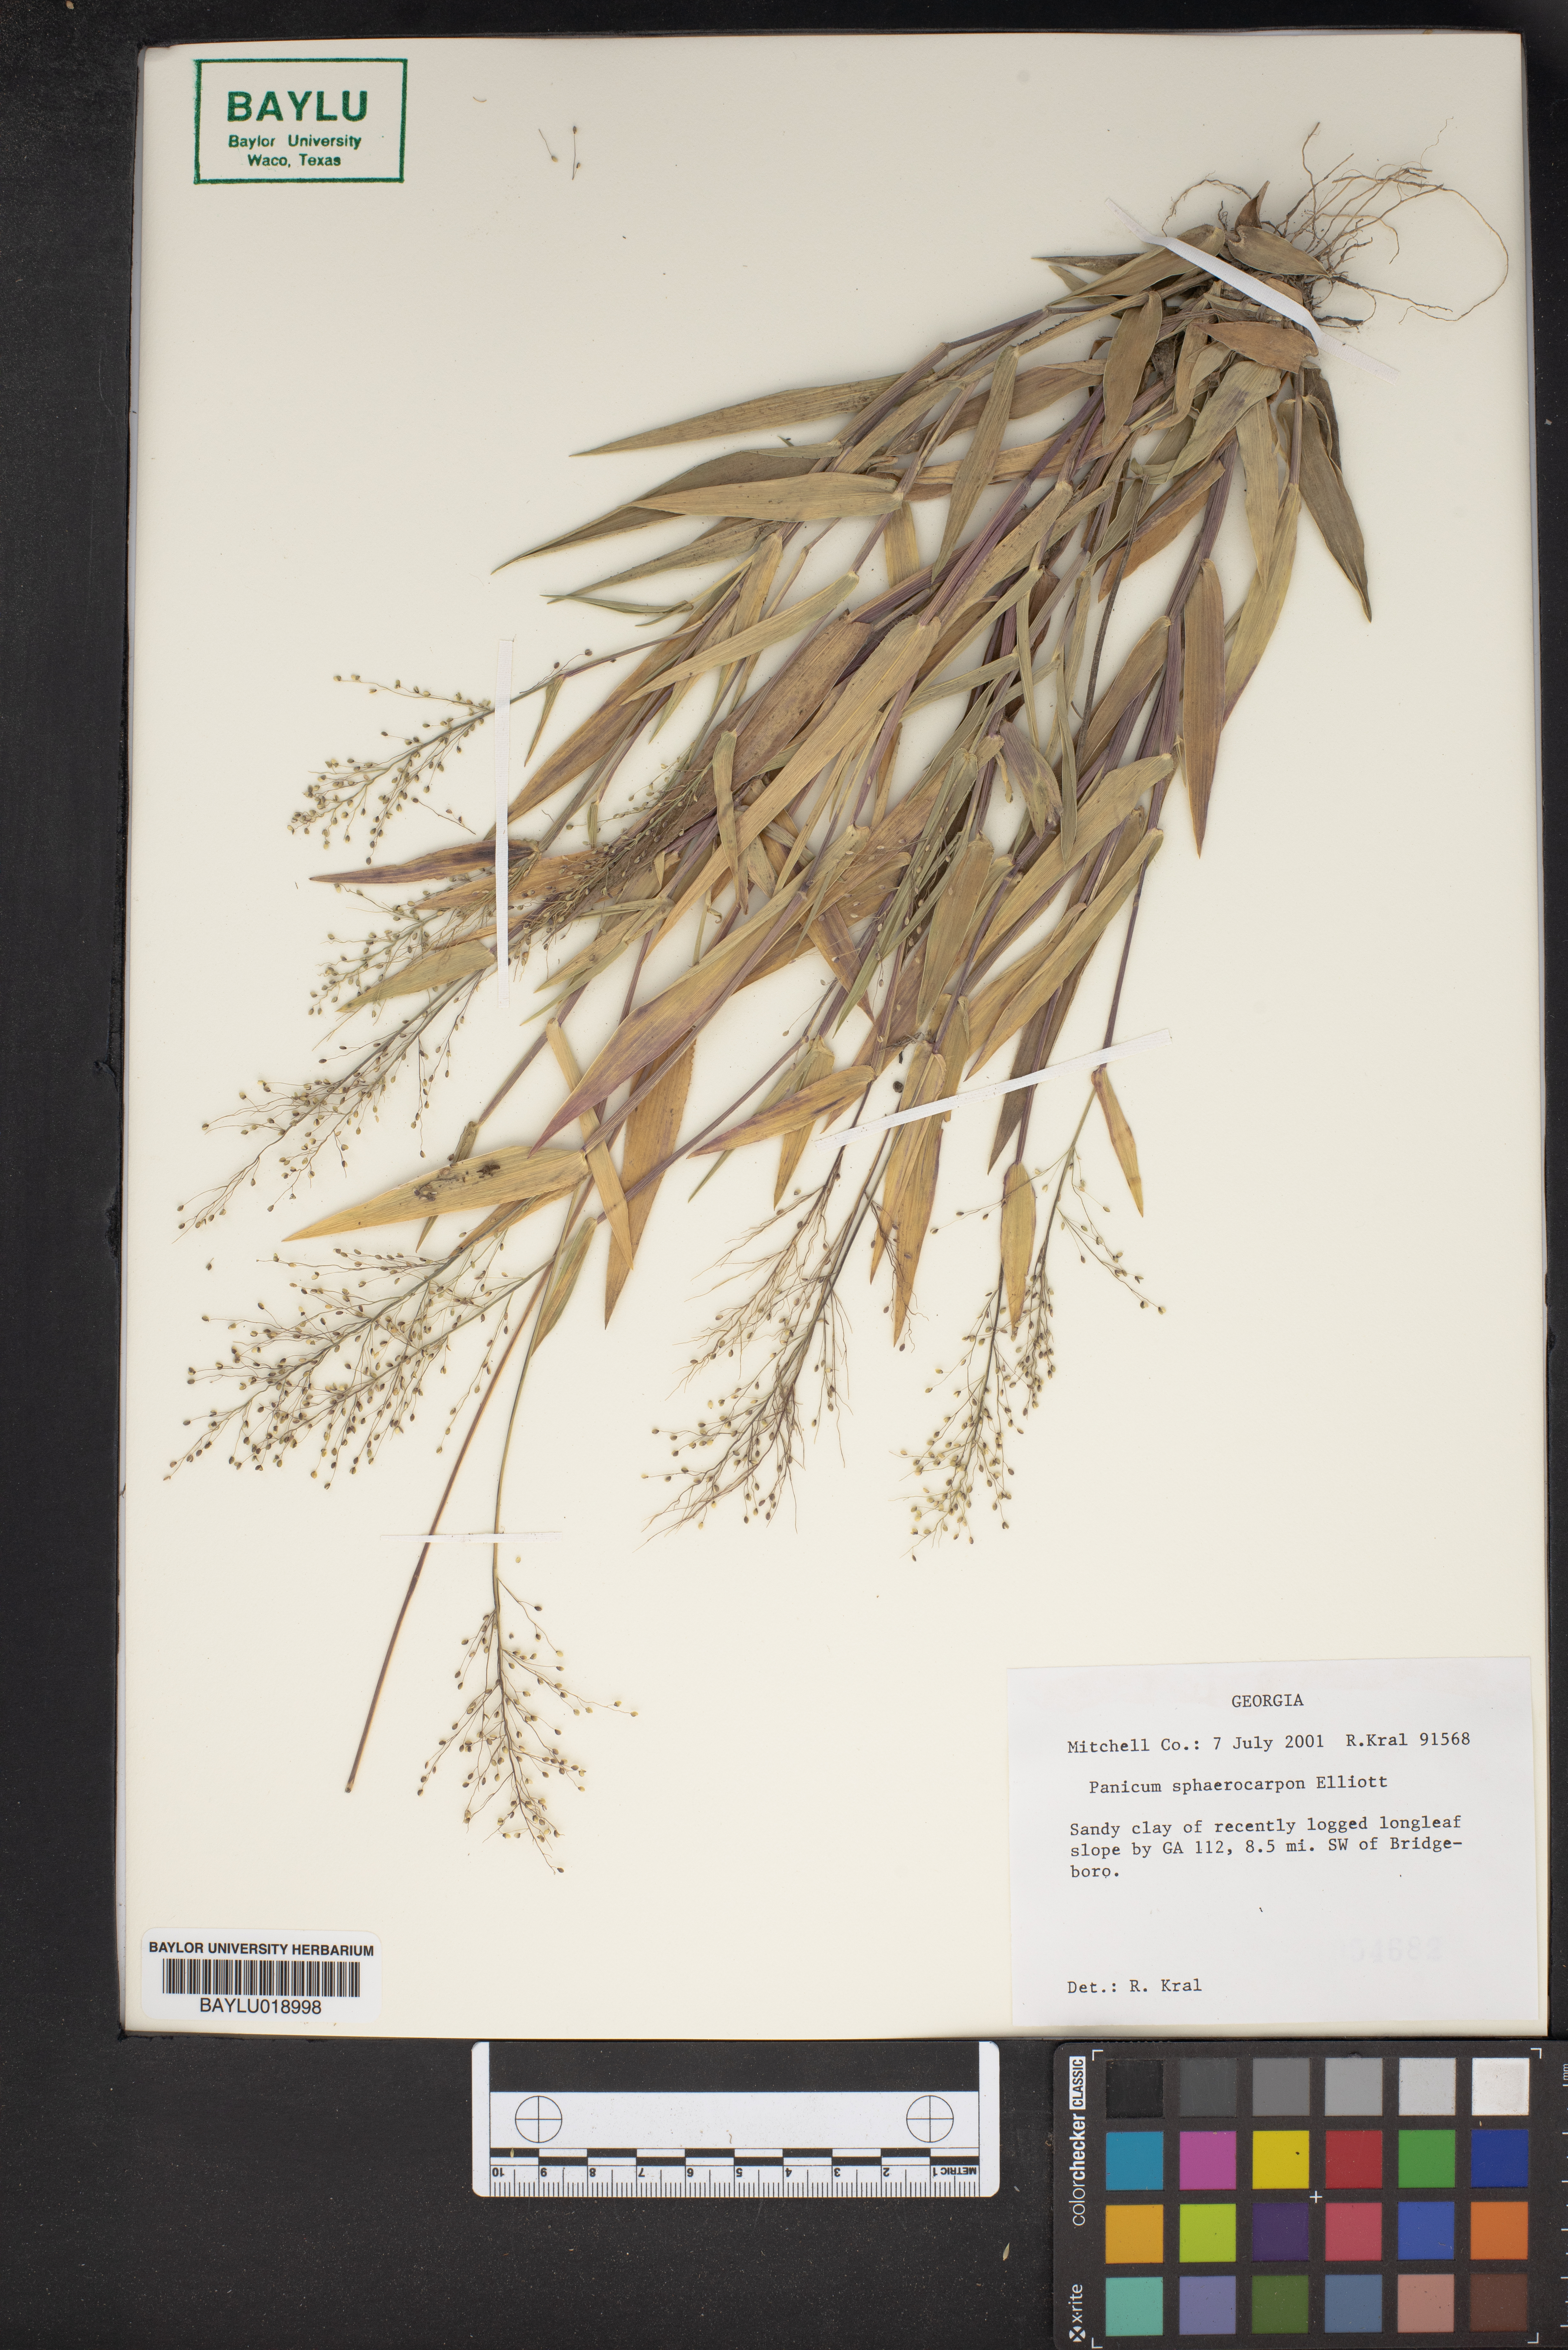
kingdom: Plantae
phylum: Tracheophyta
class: Liliopsida
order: Poales
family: Poaceae
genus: Dichanthelium
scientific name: Dichanthelium sphaerocarpon
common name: Round-fruited panicgrass
